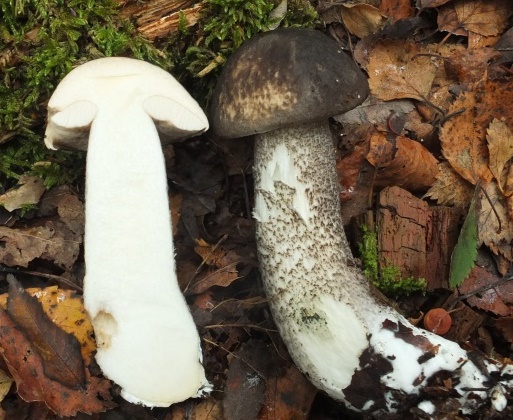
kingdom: Fungi
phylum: Basidiomycota
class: Agaricomycetes
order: Boletales
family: Boletaceae
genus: Leccinum
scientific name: Leccinum variicolor
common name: flammet skælrørhat
